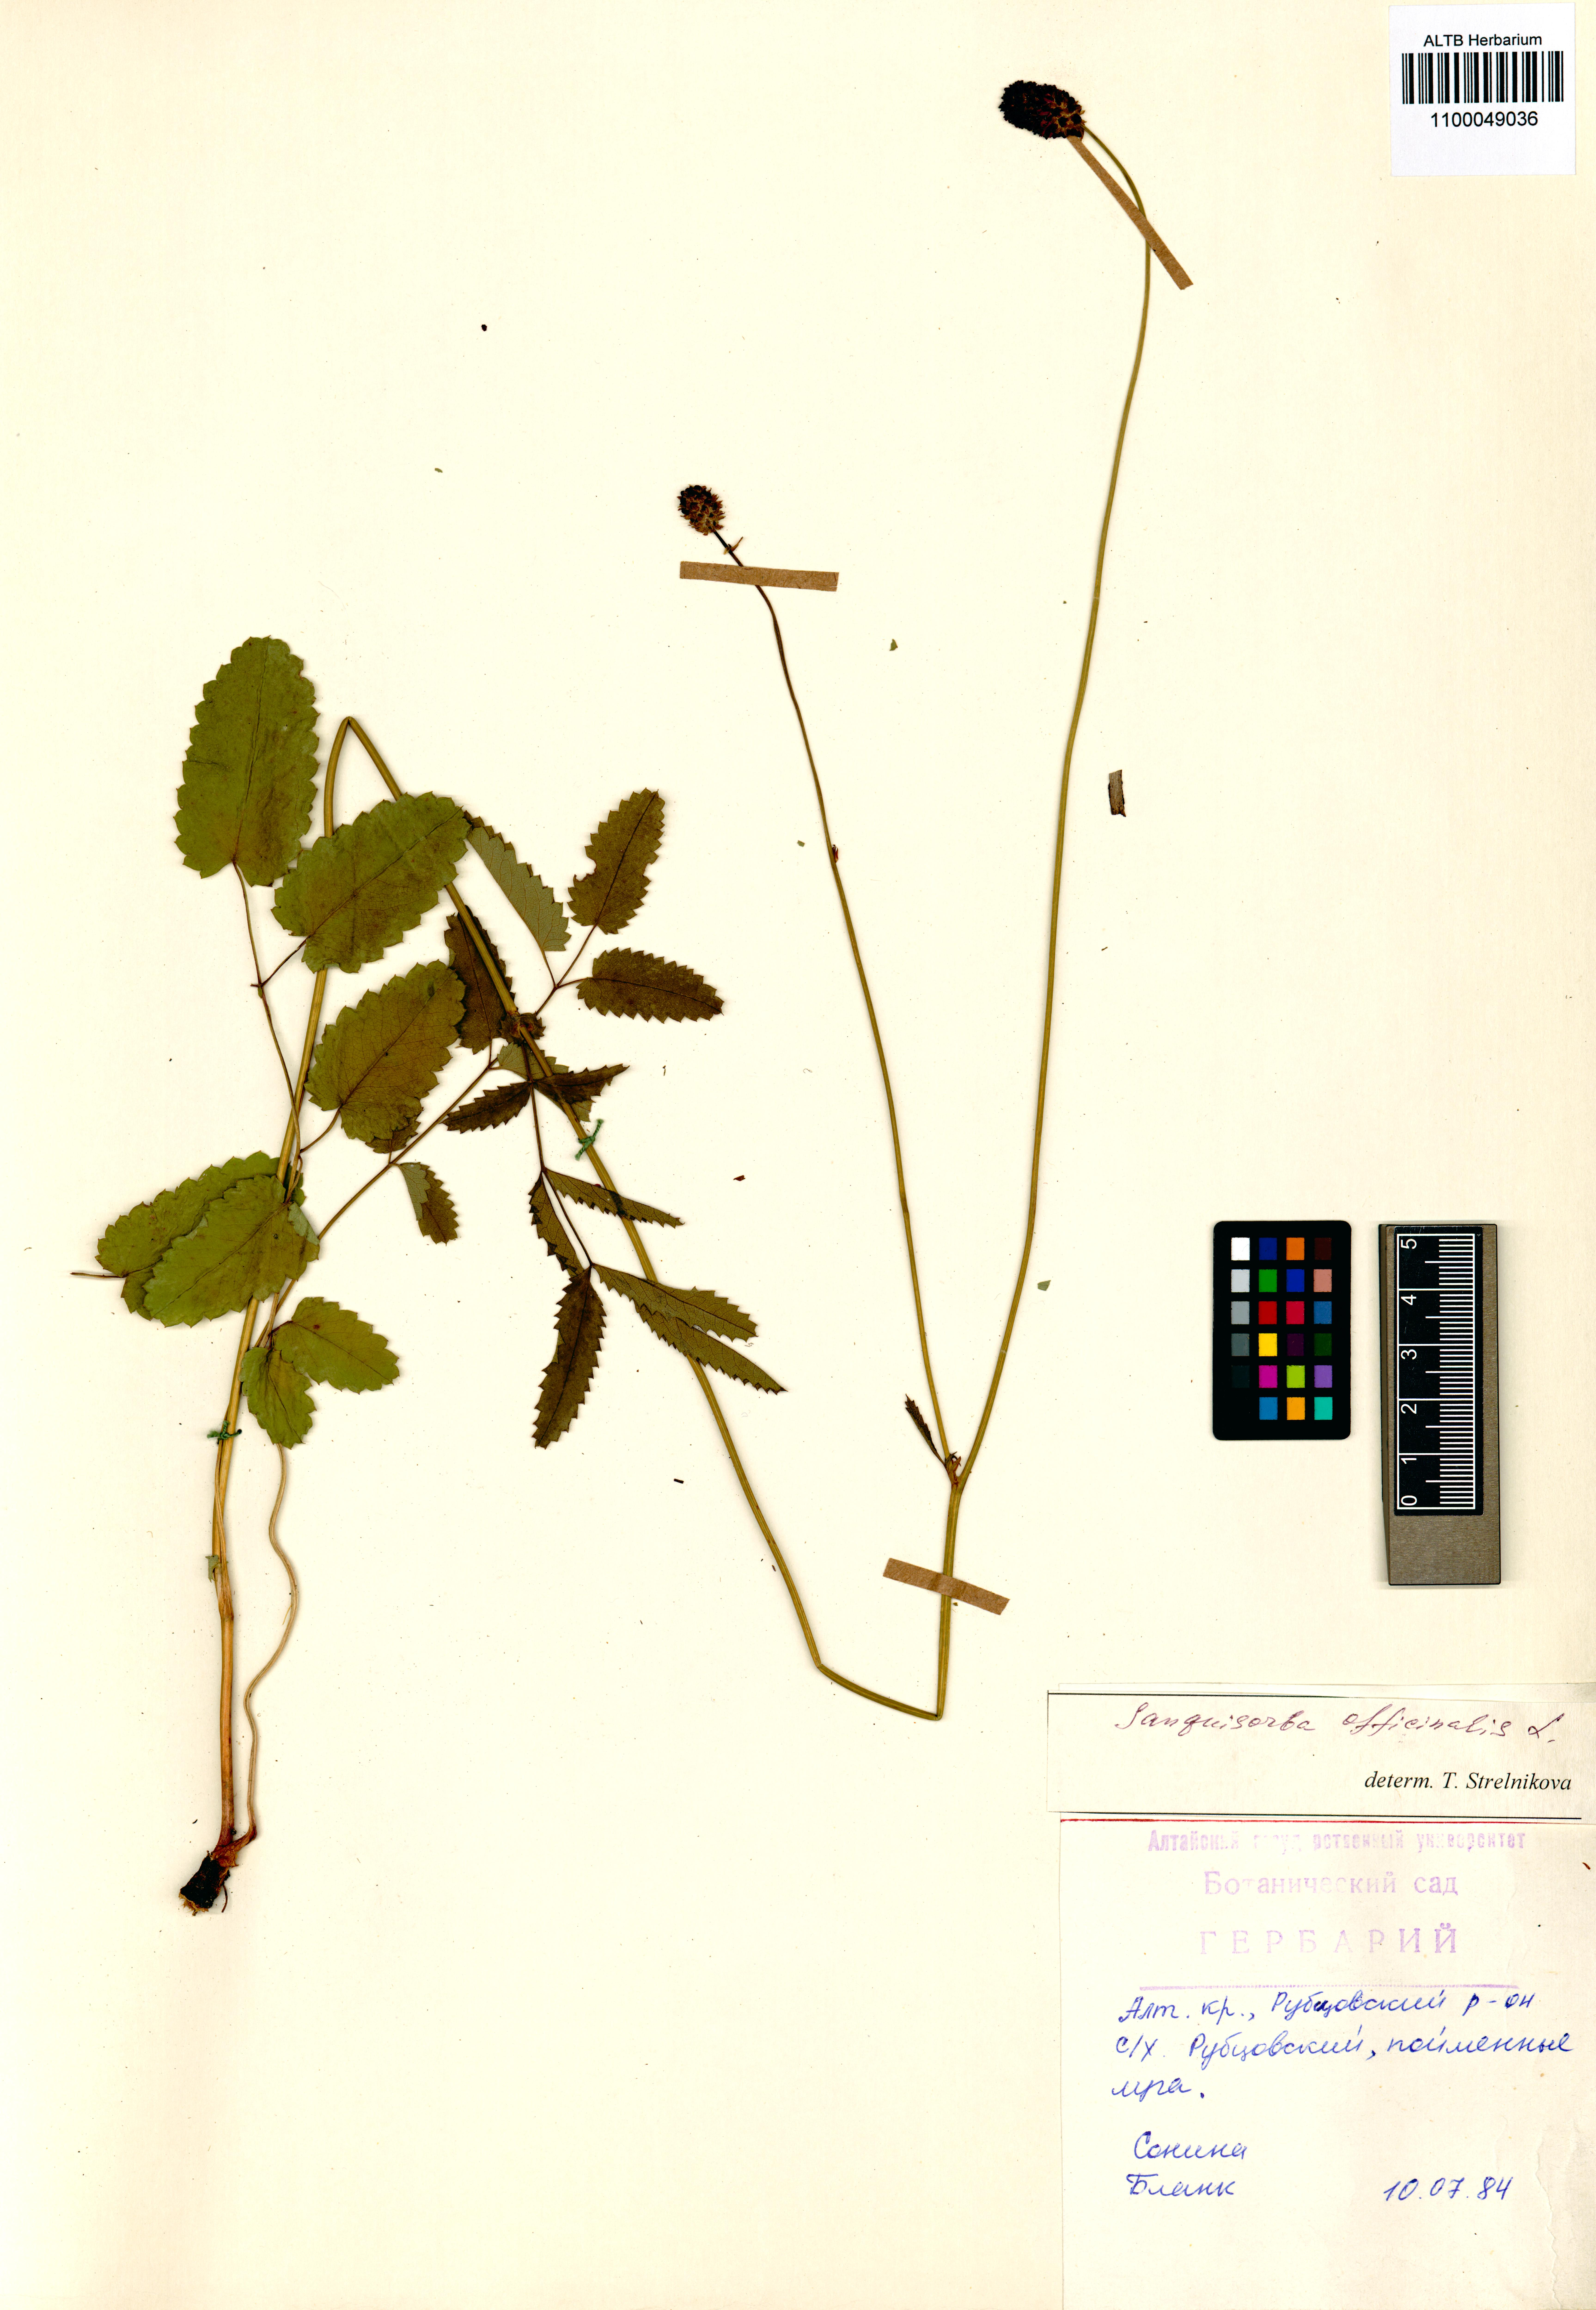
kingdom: Plantae
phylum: Tracheophyta
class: Magnoliopsida
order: Rosales
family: Rosaceae
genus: Sanguisorba
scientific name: Sanguisorba officinalis
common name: Great burnet
